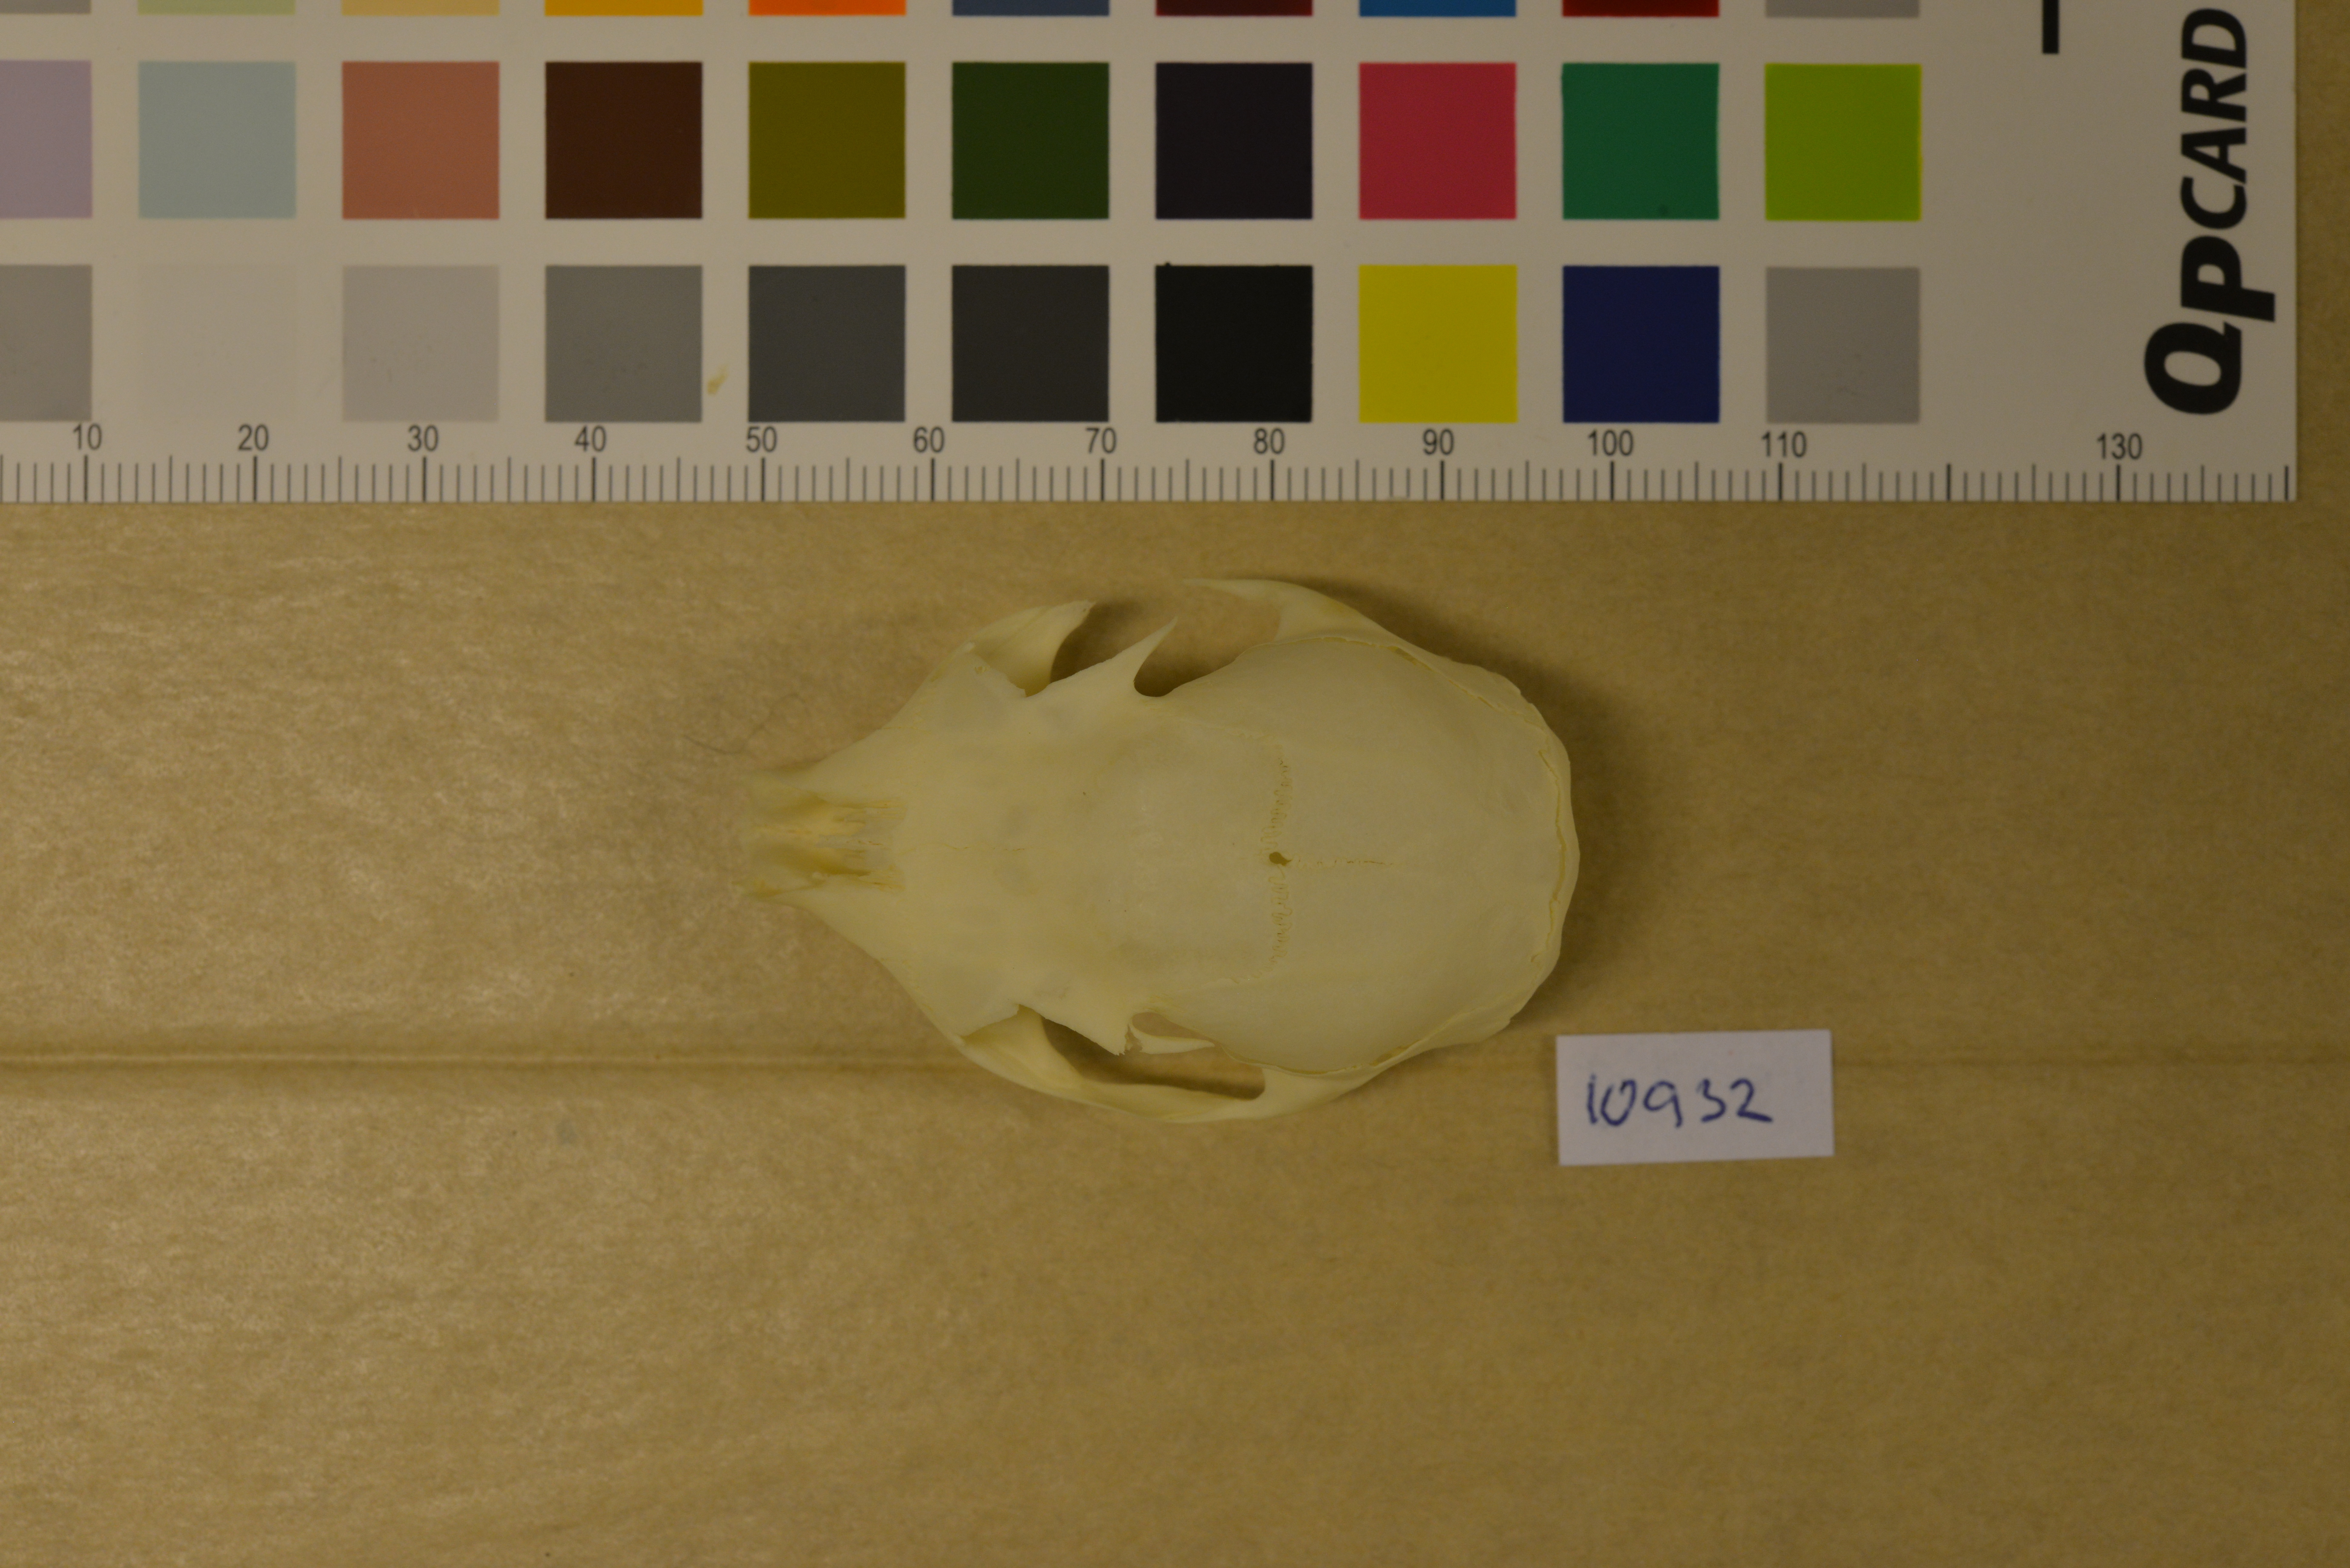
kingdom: Animalia
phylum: Chordata
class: Mammalia
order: Rodentia
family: Sciuridae
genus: Sciurus
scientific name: Sciurus vulgaris
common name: Eurasian red squirrel
